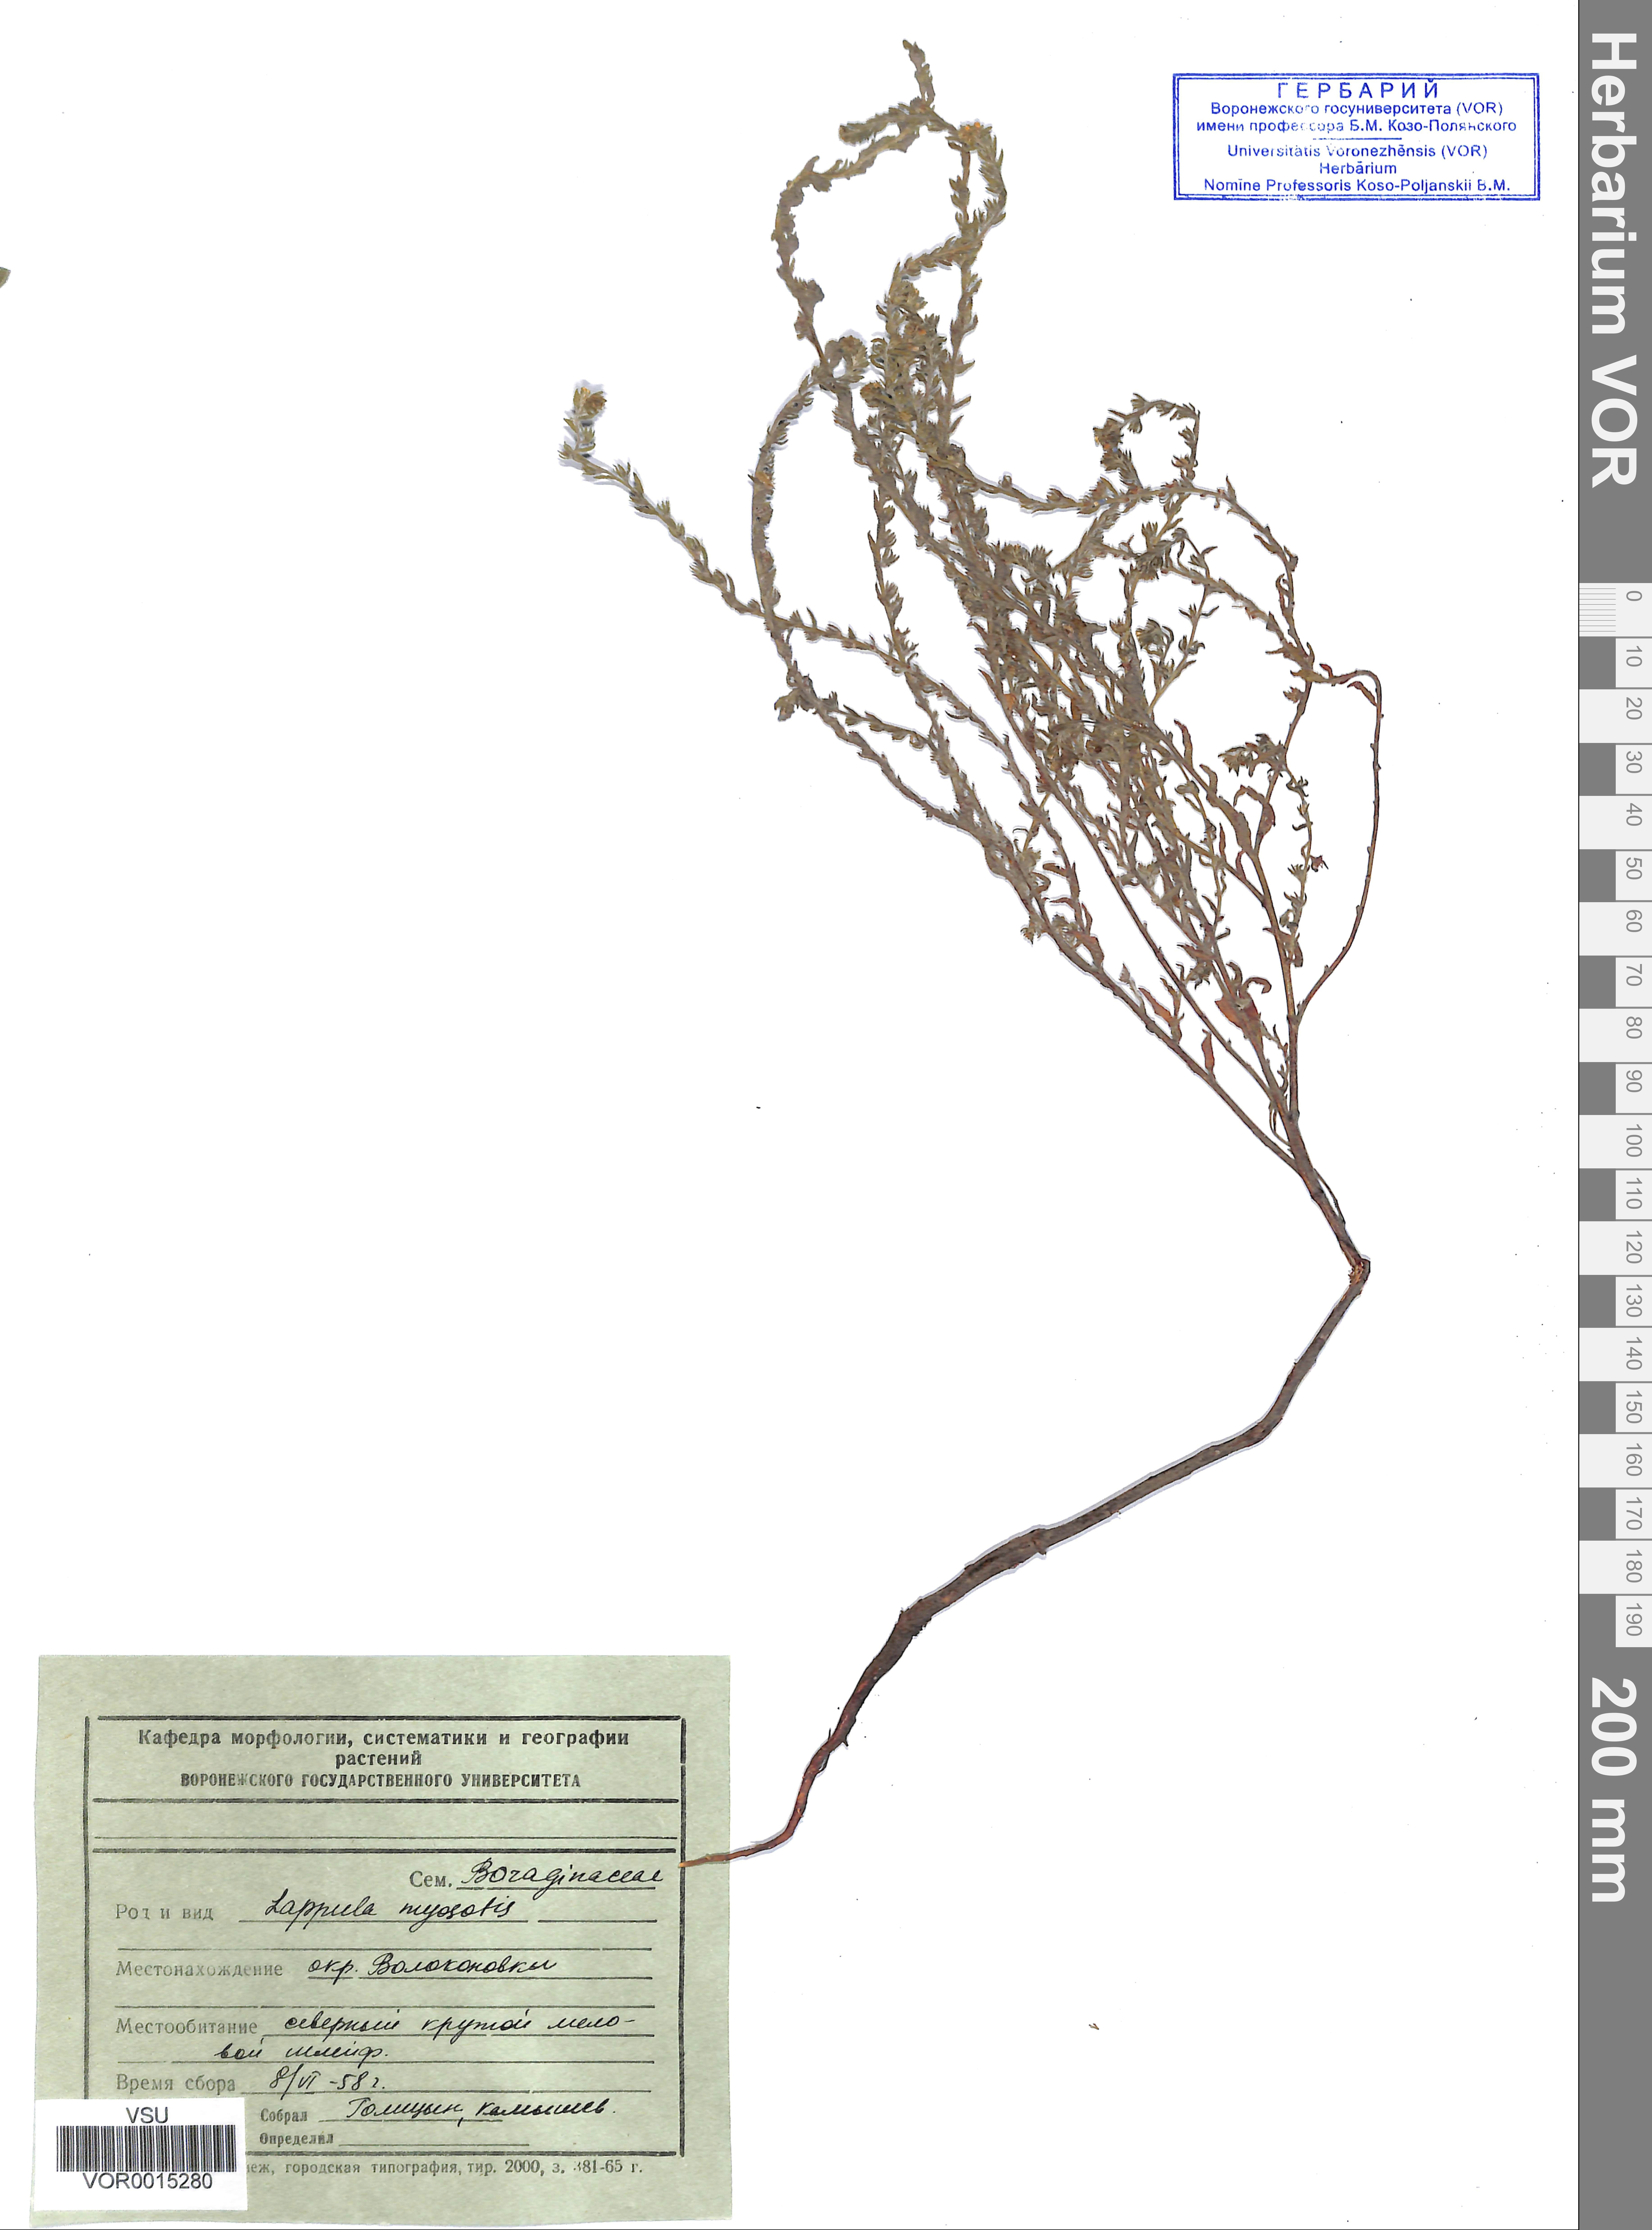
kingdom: Plantae
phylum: Tracheophyta
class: Magnoliopsida
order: Boraginales
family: Boraginaceae
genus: Lappula
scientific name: Lappula squarrosa
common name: European stickseed
